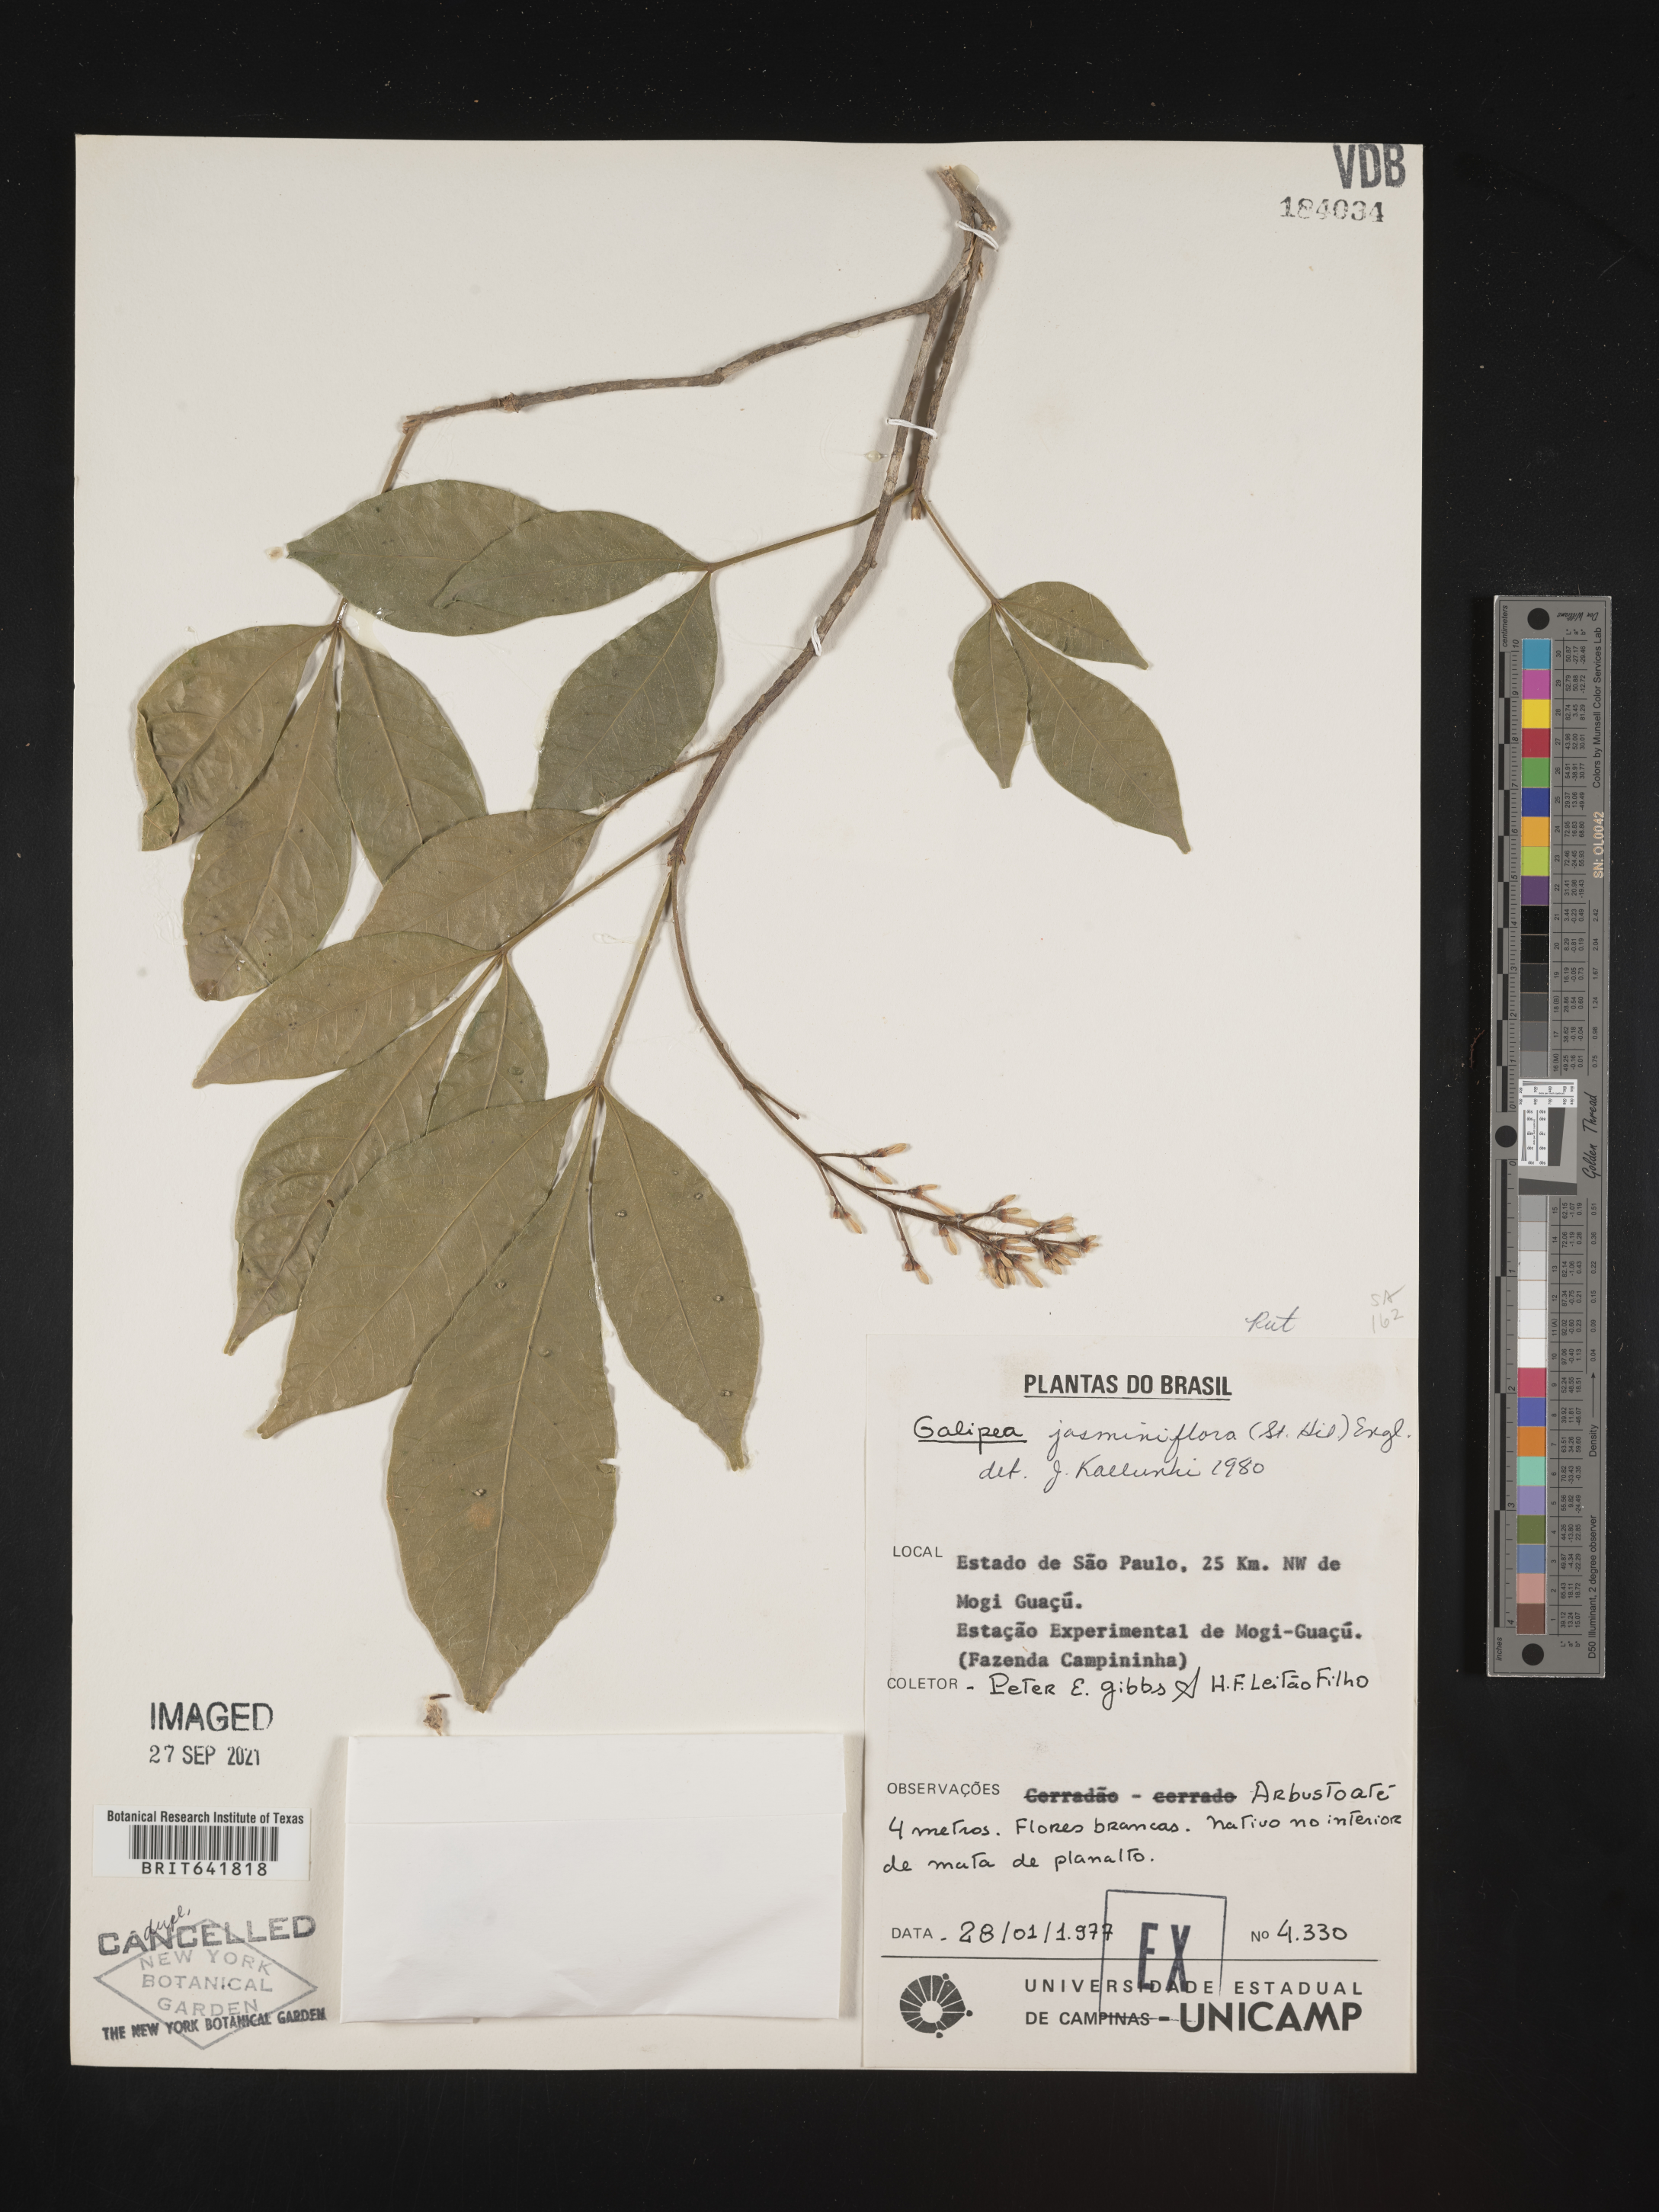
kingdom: Plantae
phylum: Tracheophyta
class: Magnoliopsida
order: Sapindales
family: Rutaceae
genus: Galipea
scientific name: Galipea
